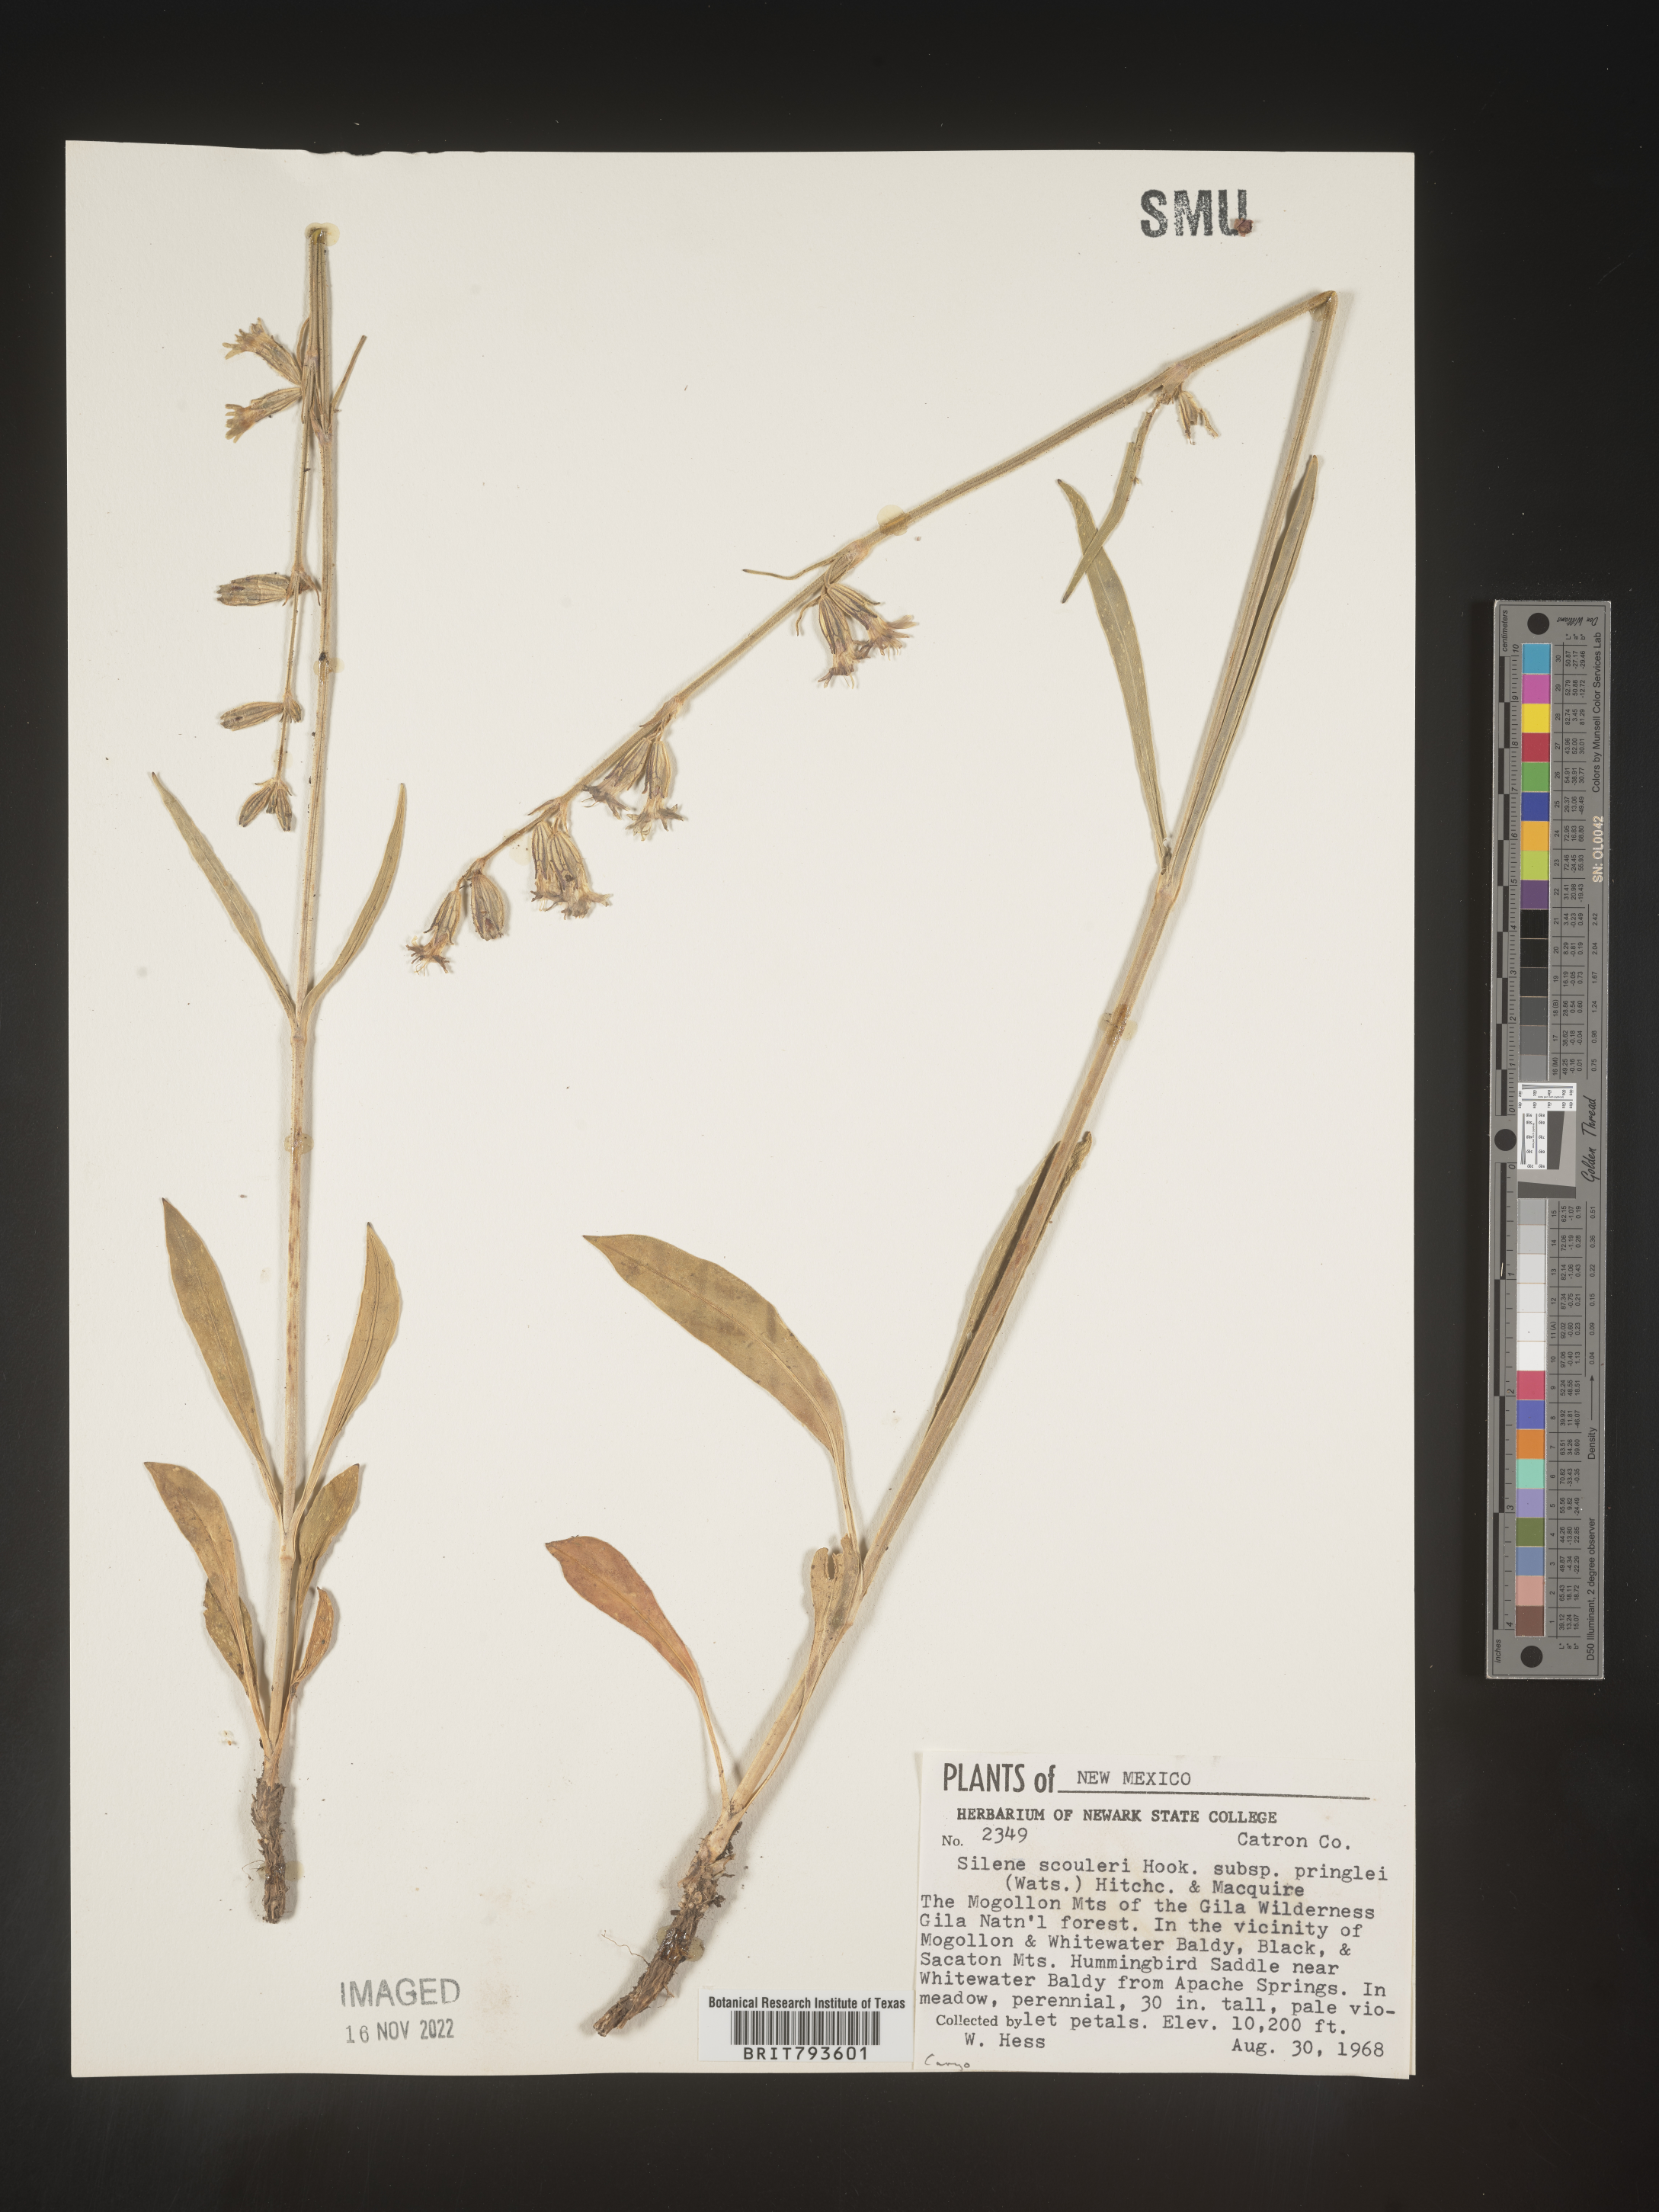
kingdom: Plantae
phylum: Tracheophyta
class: Magnoliopsida
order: Caryophyllales
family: Caryophyllaceae
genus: Silene
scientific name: Silene scouleri
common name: Scouler's campion
